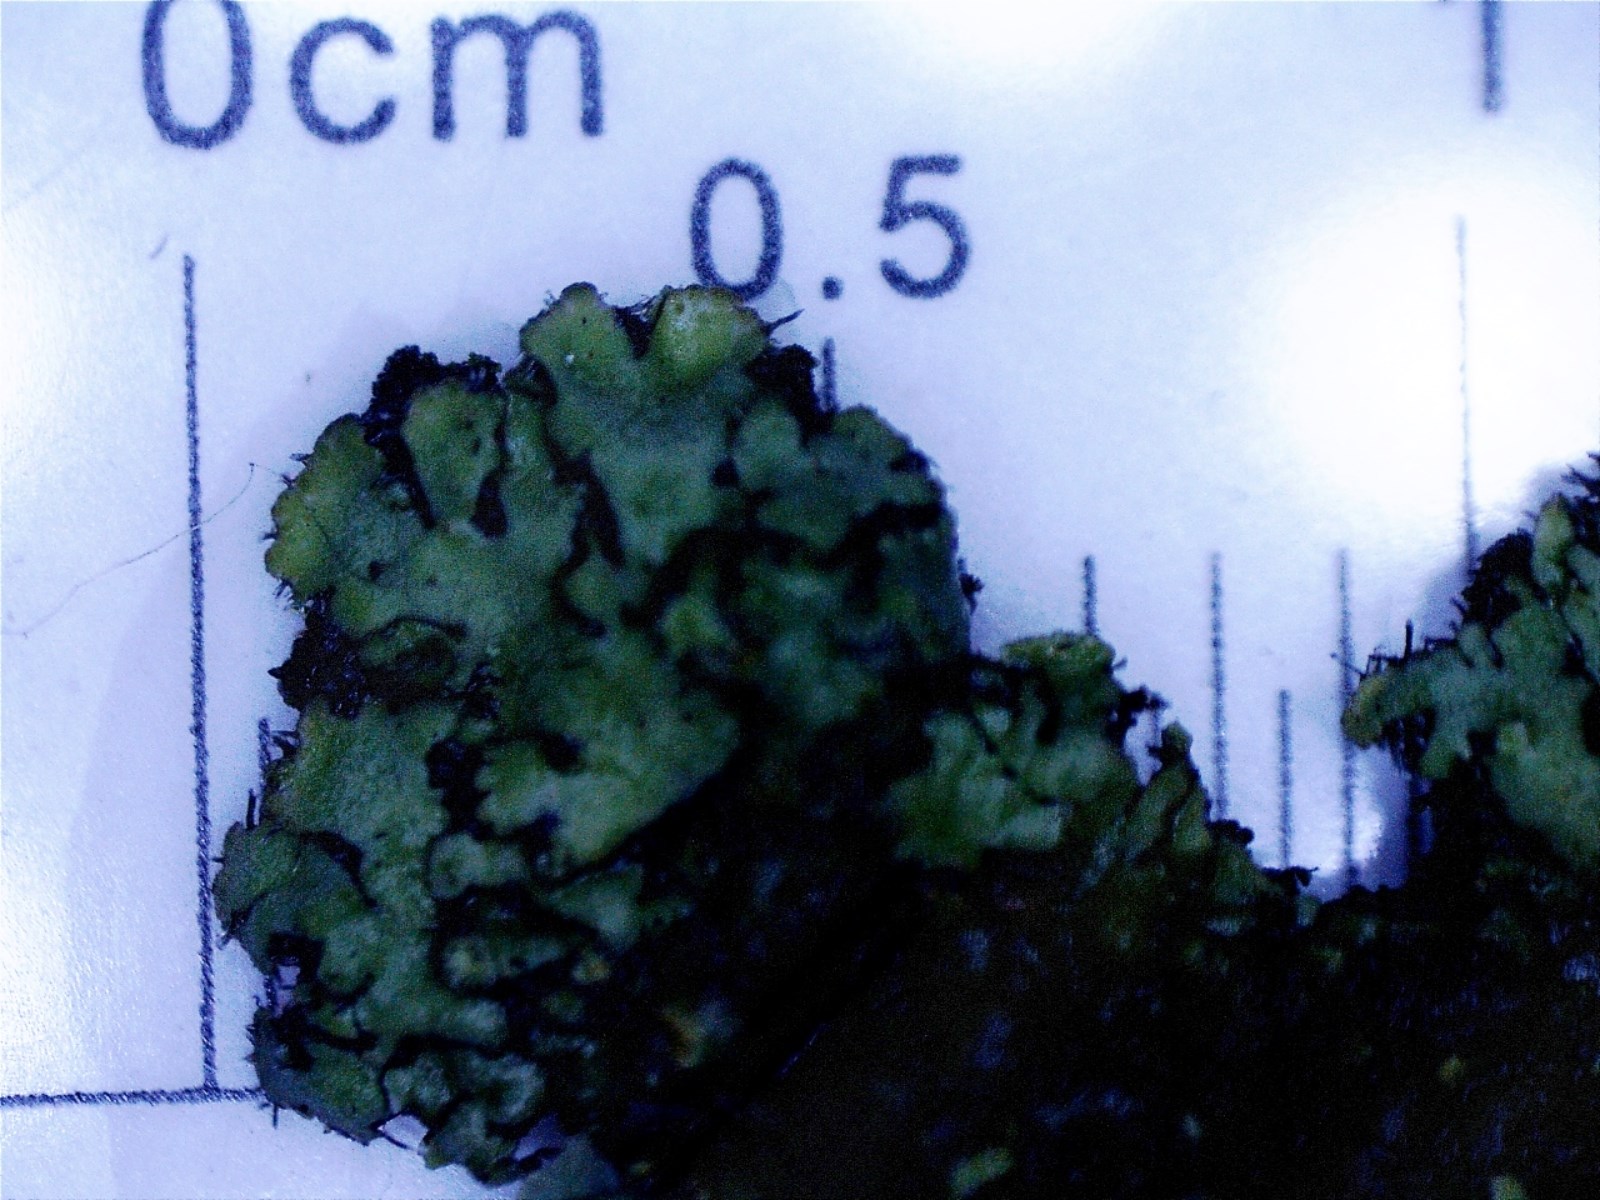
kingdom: Fungi
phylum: Ascomycota
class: Lecanoromycetes
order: Caliciales
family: Physciaceae
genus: Phaeophyscia
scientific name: Phaeophyscia orbicularis
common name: grågrøn rosetlav
